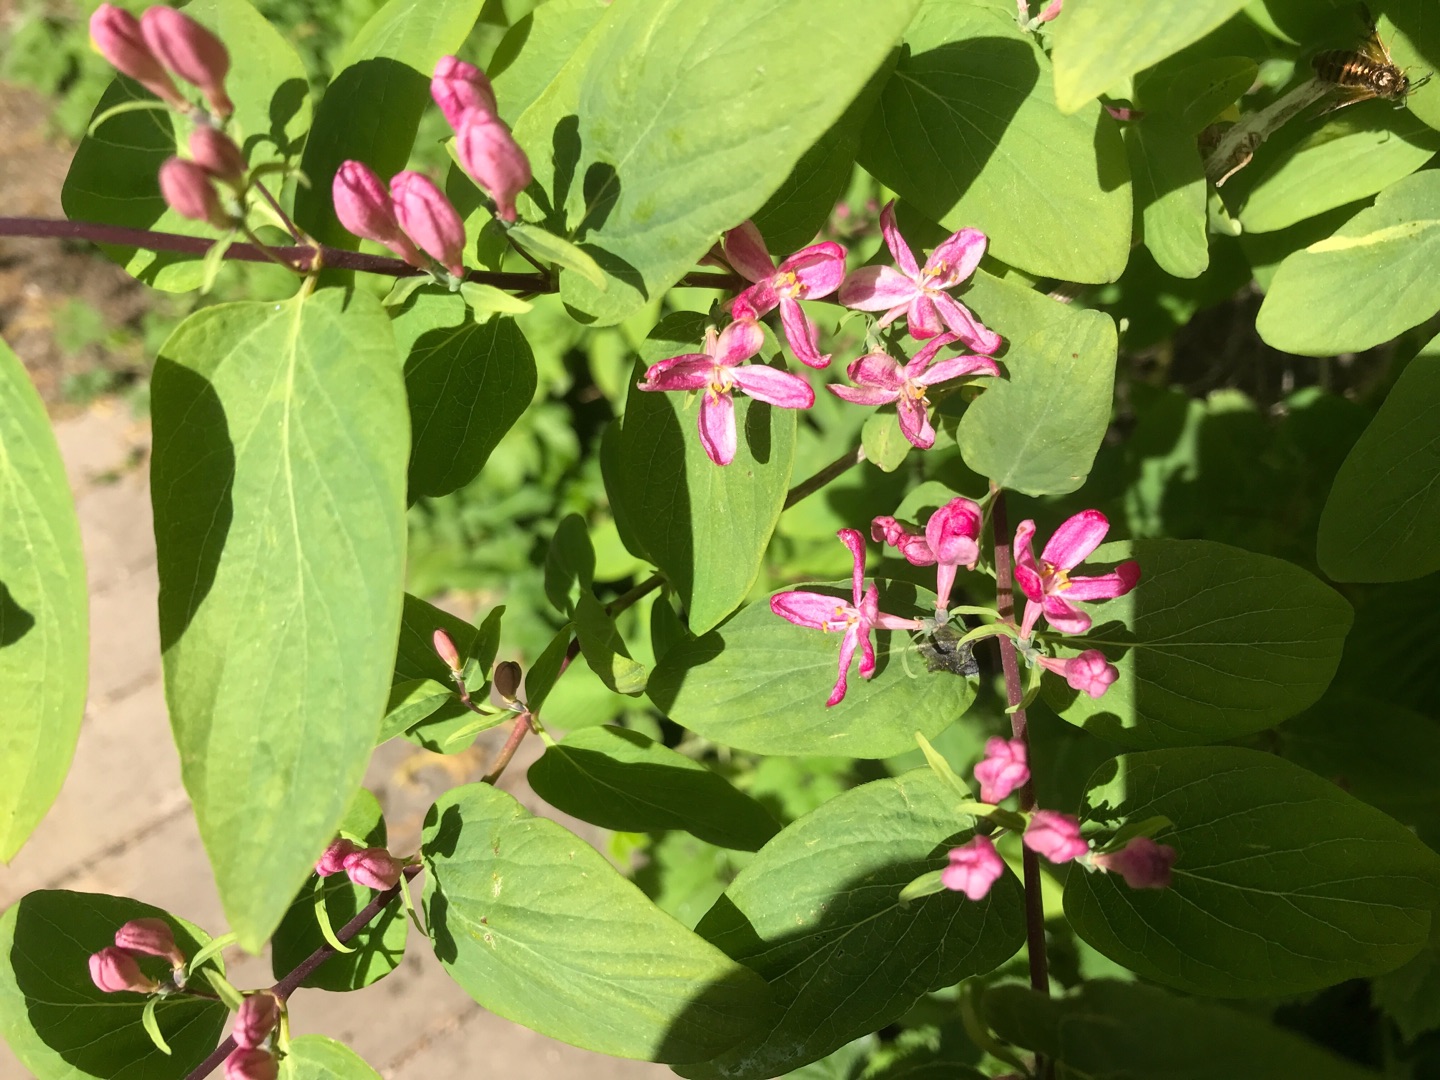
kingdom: Plantae
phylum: Tracheophyta
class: Magnoliopsida
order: Dipsacales
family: Caprifoliaceae
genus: Lonicera
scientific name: Lonicera tatarica
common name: Tatarisk gedeblad
